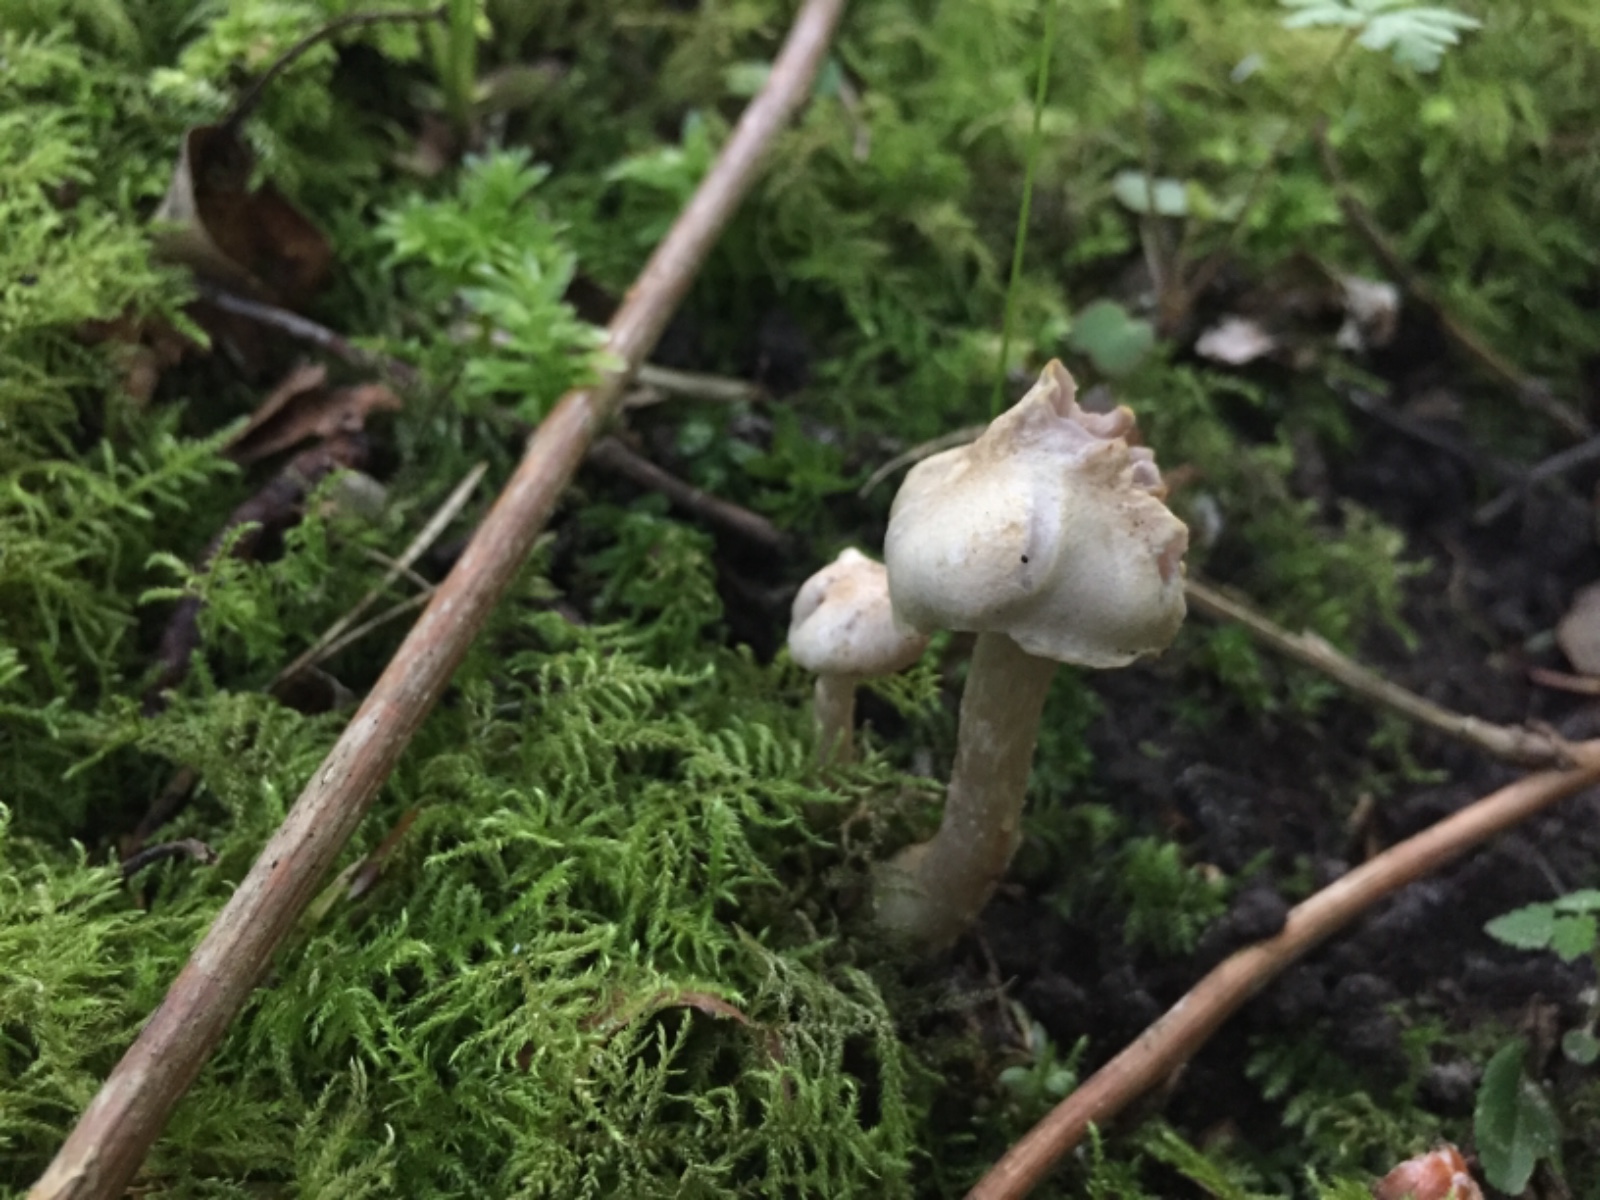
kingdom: Fungi
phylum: Basidiomycota
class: Agaricomycetes
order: Agaricales
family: Cortinariaceae
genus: Cortinarius
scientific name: Cortinarius
